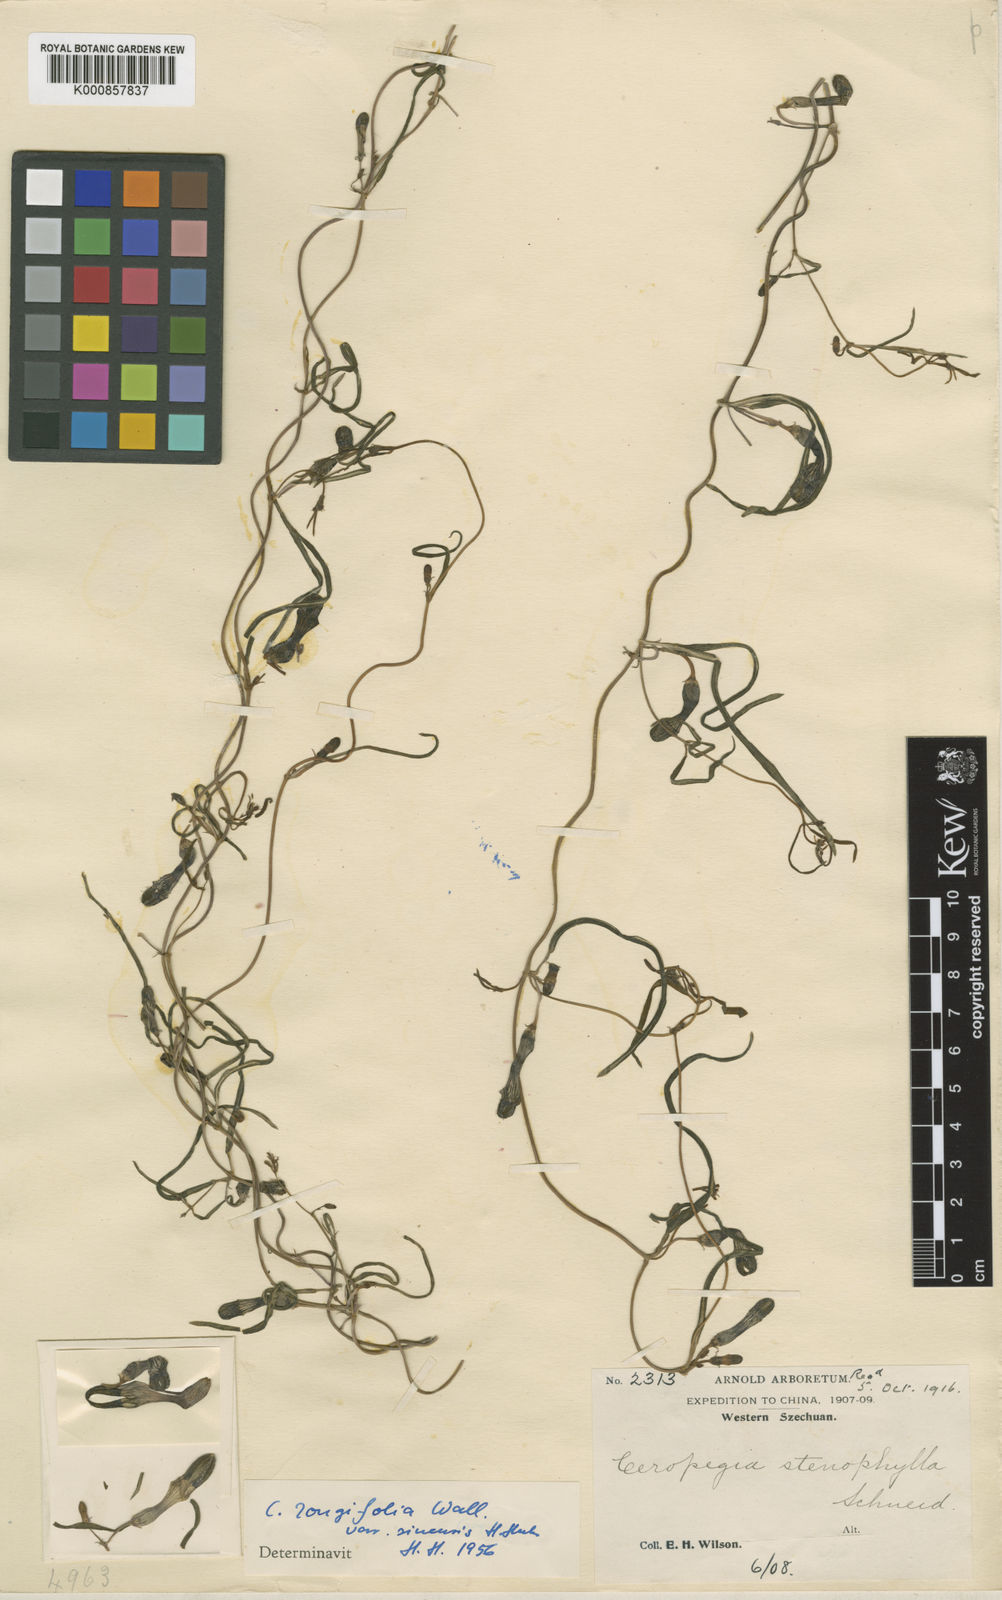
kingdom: Plantae
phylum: Tracheophyta
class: Magnoliopsida
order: Gentianales
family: Apocynaceae
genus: Ceropegia
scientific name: Ceropegia longifolia
